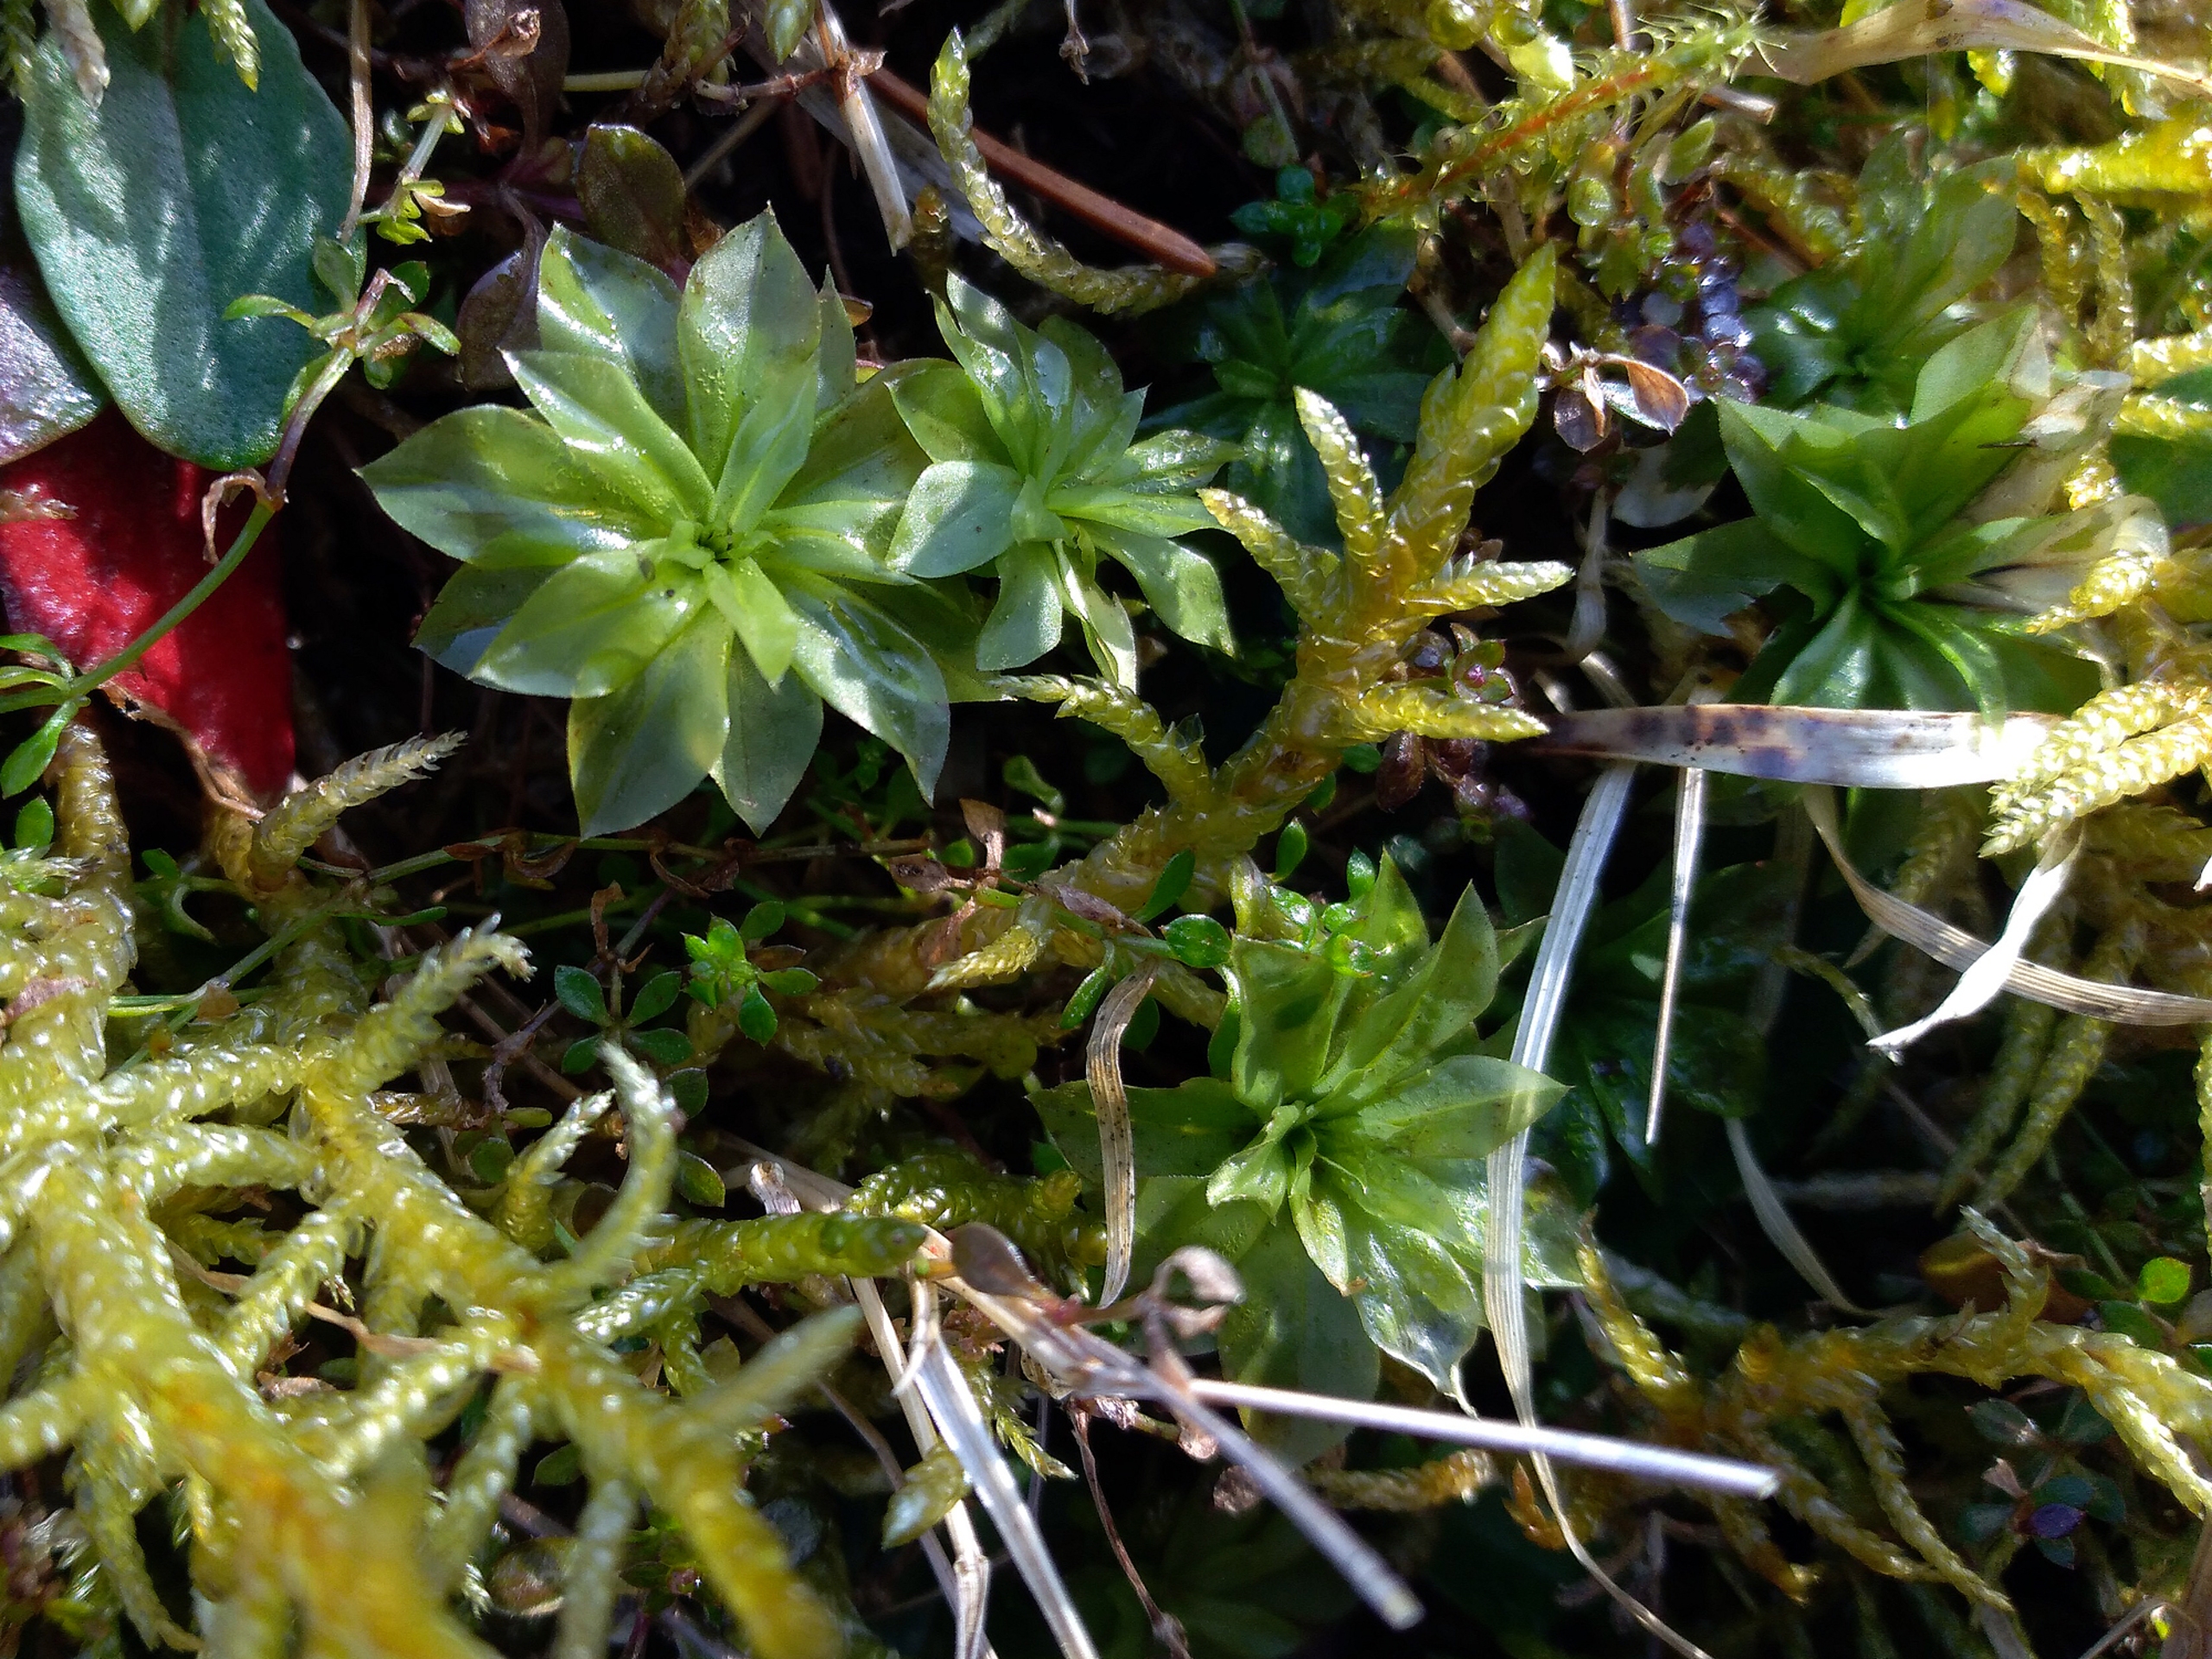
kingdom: Plantae
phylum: Bryophyta
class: Bryopsida
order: Bryales
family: Bryaceae
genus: Rhodobryum
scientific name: Rhodobryum roseum
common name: Stor rosetmos
